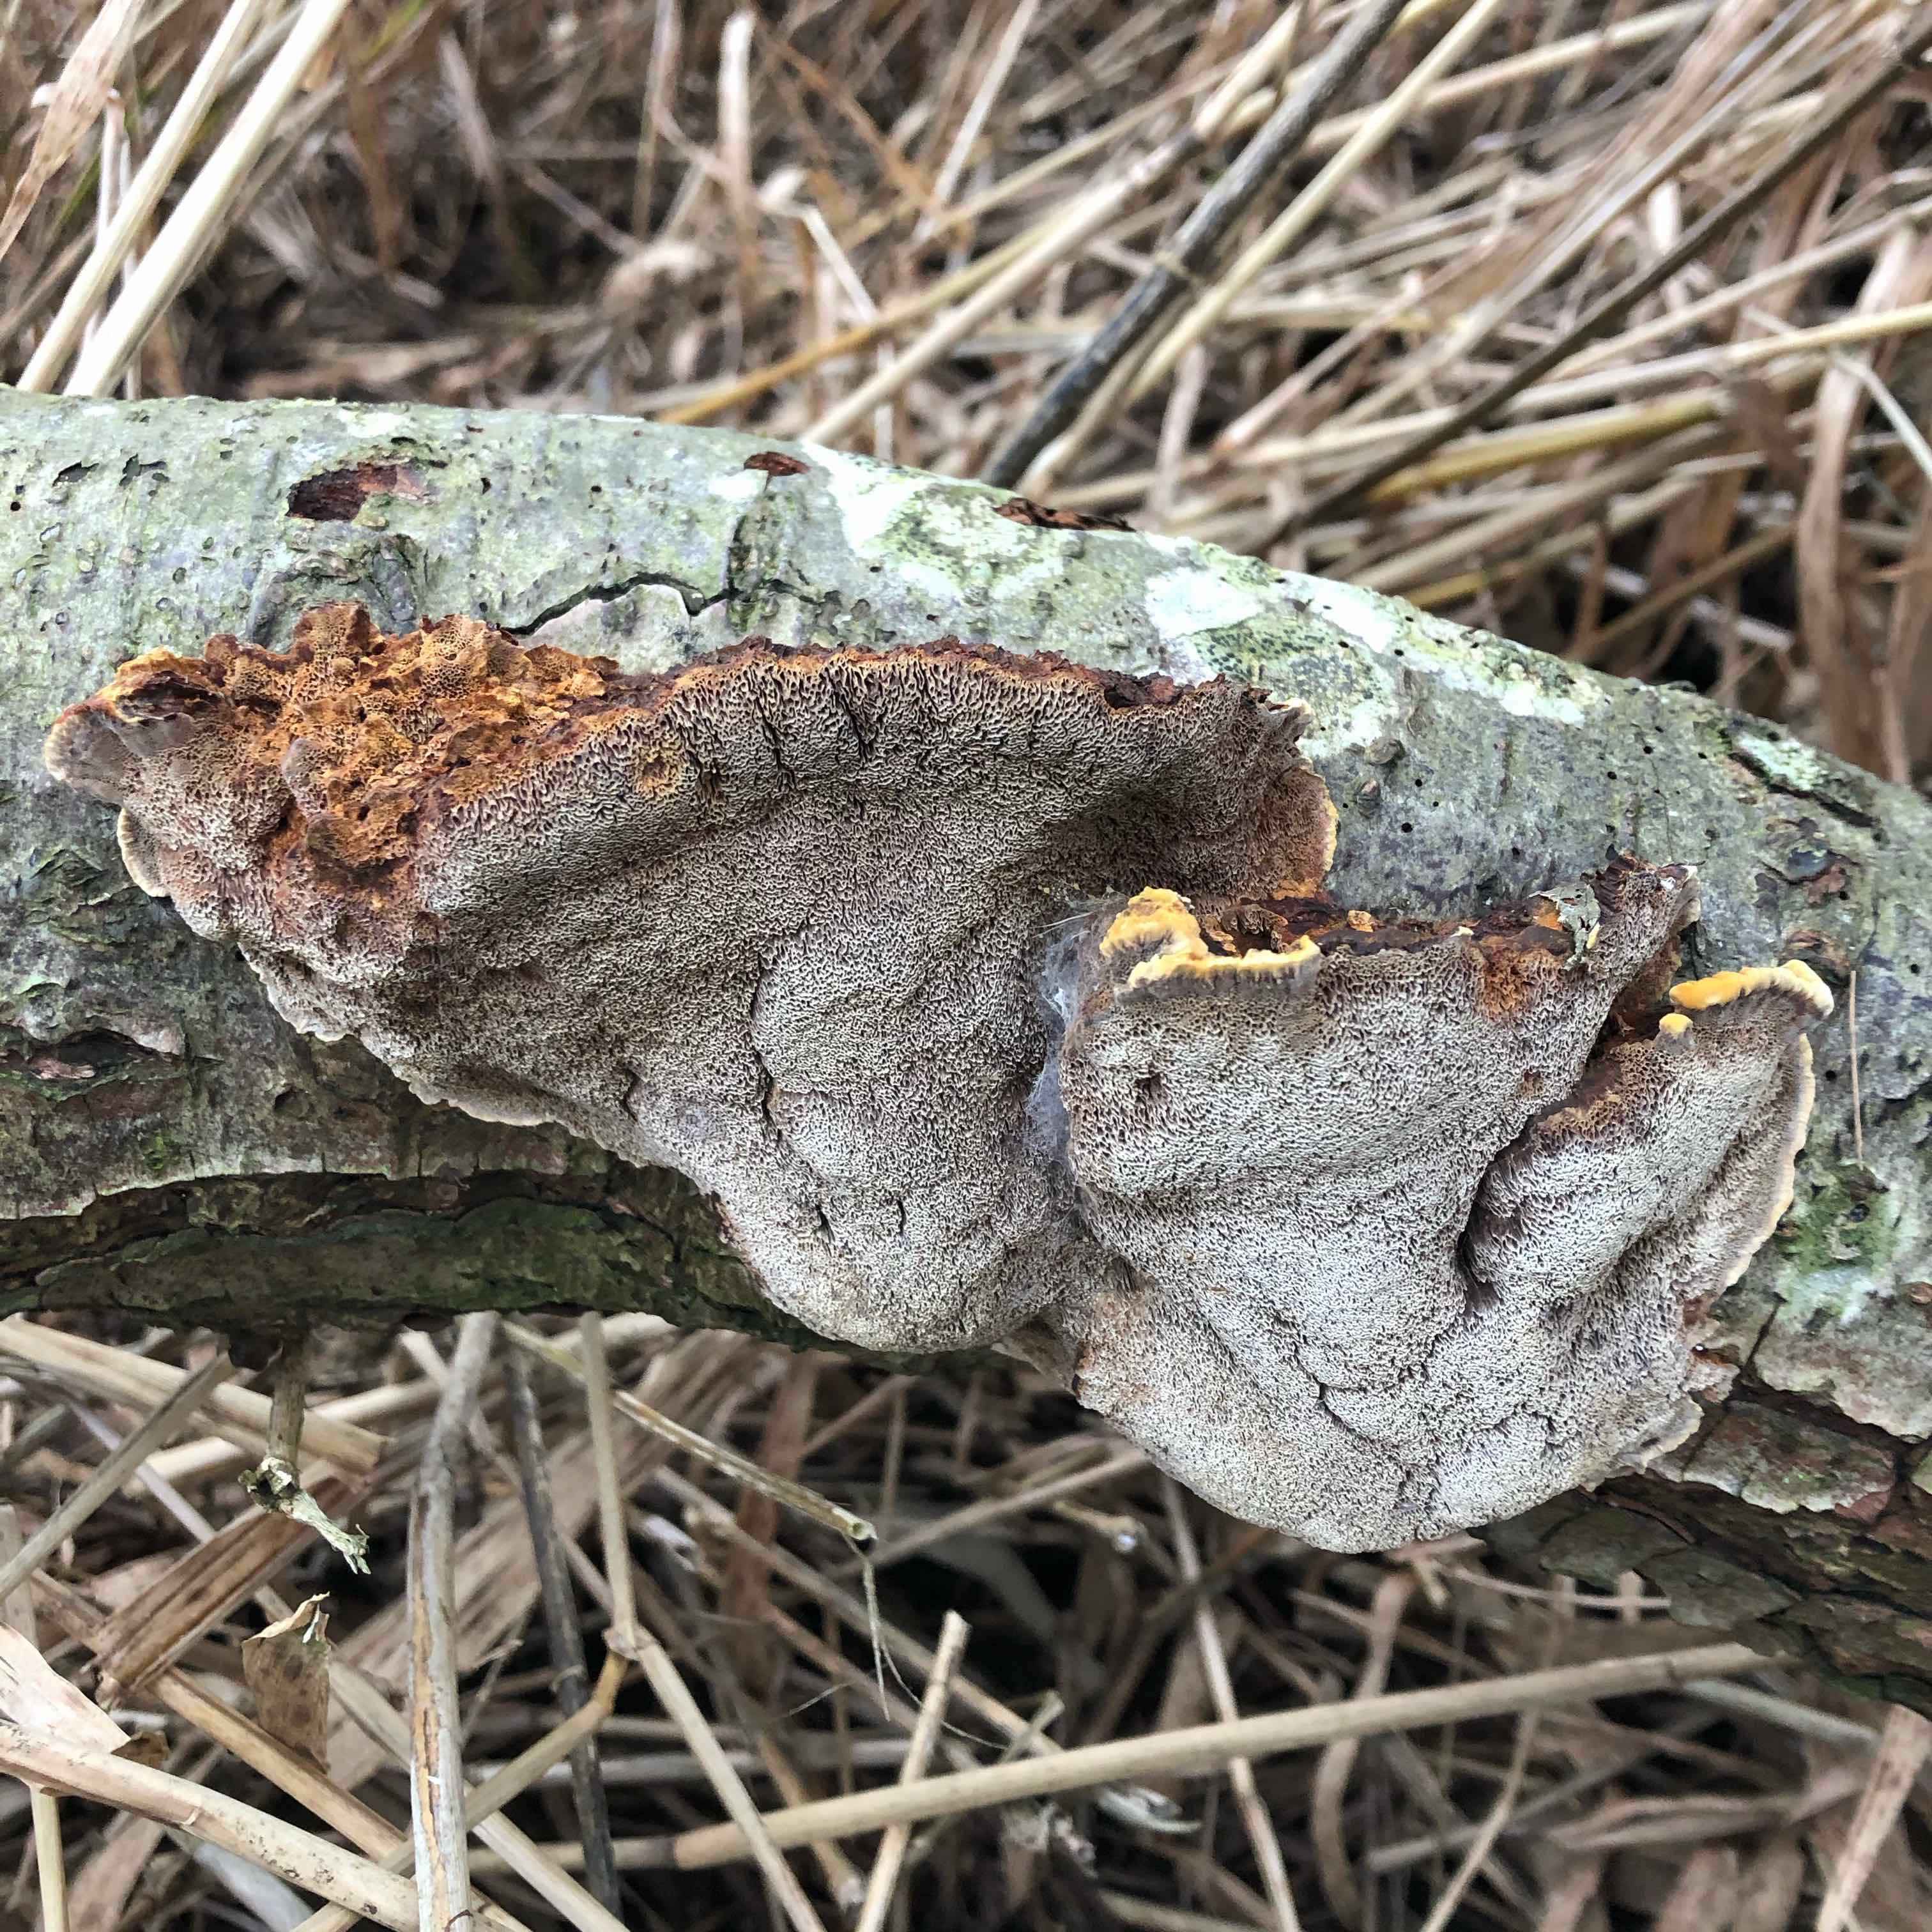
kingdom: Fungi
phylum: Basidiomycota
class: Agaricomycetes
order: Hymenochaetales
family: Hymenochaetaceae
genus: Xanthoporia
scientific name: Xanthoporia radiata
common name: elle-spejlporesvamp
